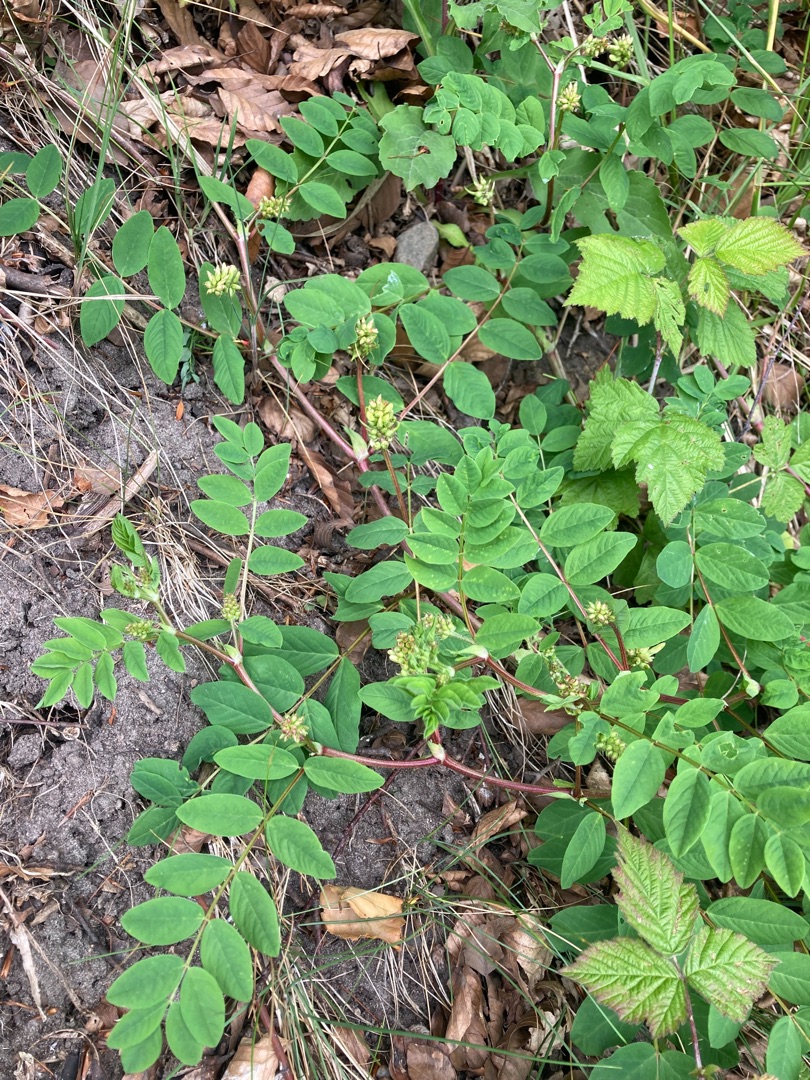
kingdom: Plantae
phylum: Tracheophyta
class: Magnoliopsida
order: Fabales
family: Fabaceae
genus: Astragalus
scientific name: Astragalus glycyphyllos
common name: Sød astragel
